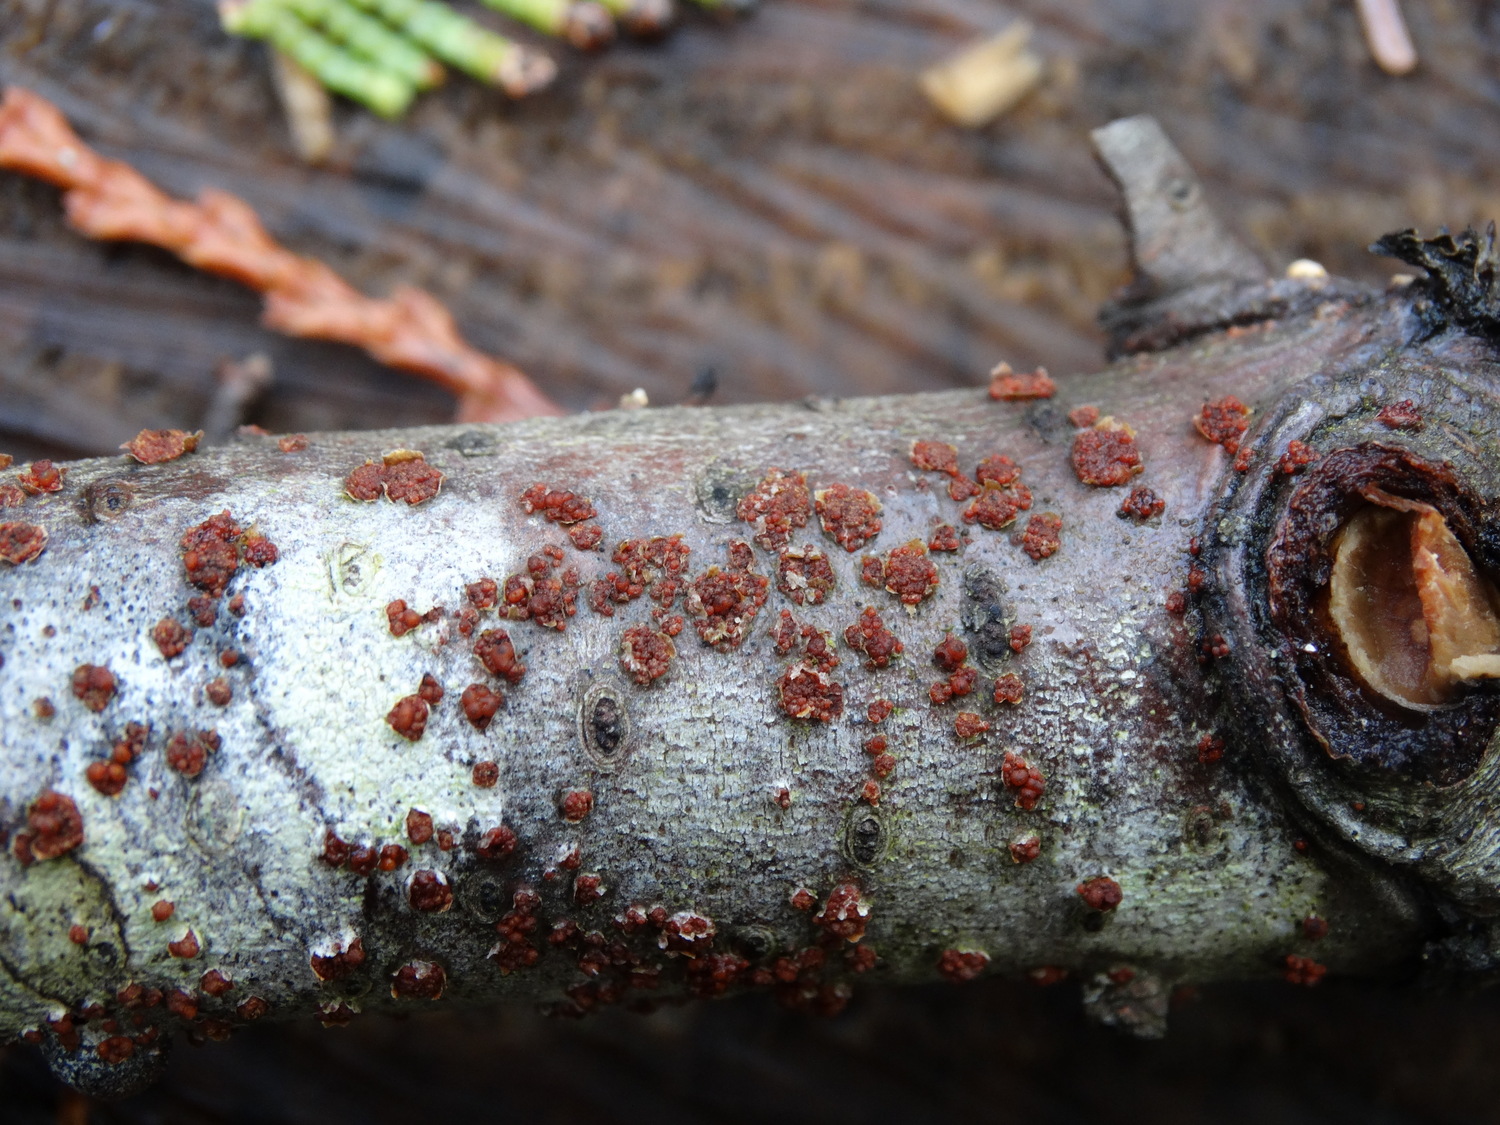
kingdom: Fungi
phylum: Ascomycota
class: Sordariomycetes
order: Hypocreales
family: Nectriaceae
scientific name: Nectriaceae
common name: cinnobersvampfamilien
